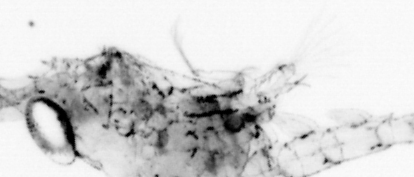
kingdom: Animalia
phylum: Chaetognatha
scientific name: Chaetognatha
